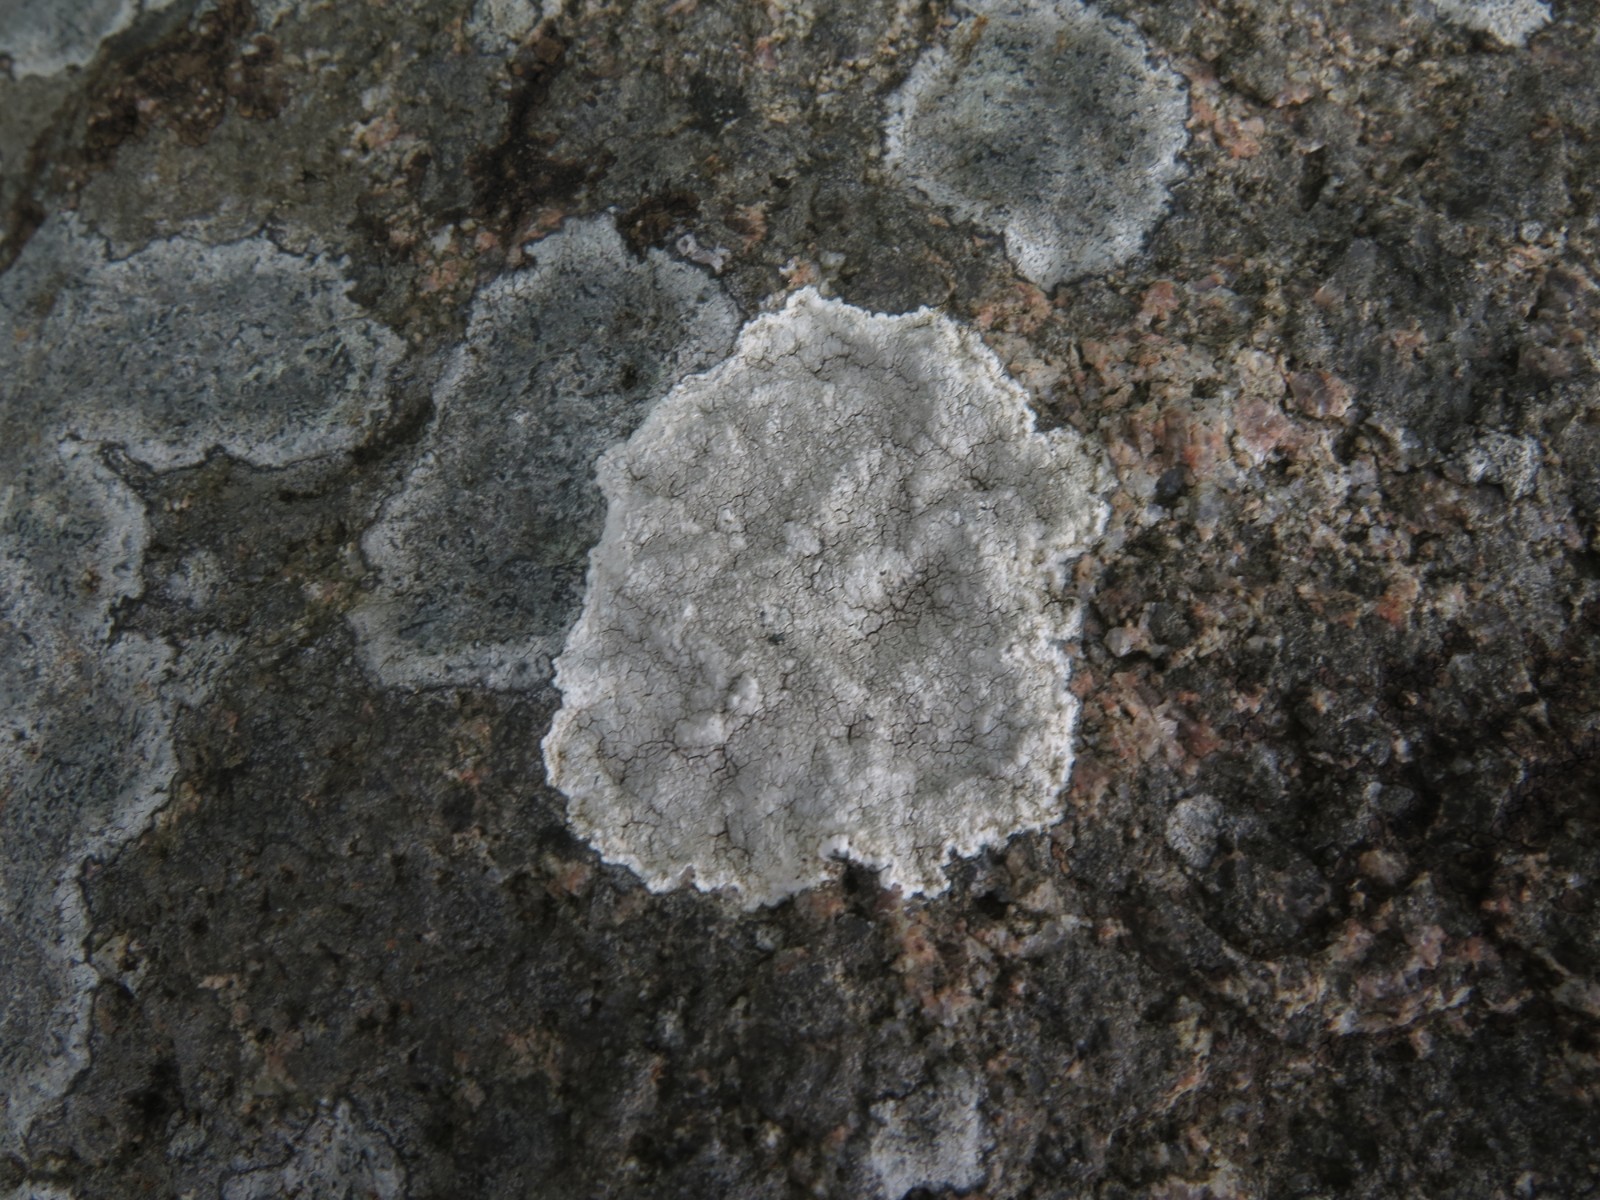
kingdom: Fungi
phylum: Ascomycota
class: Lecanoromycetes
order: Lecanorales
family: Lecanoraceae
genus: Glaucomaria
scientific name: Glaucomaria rupicola
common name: stengærde-kantskivelav
